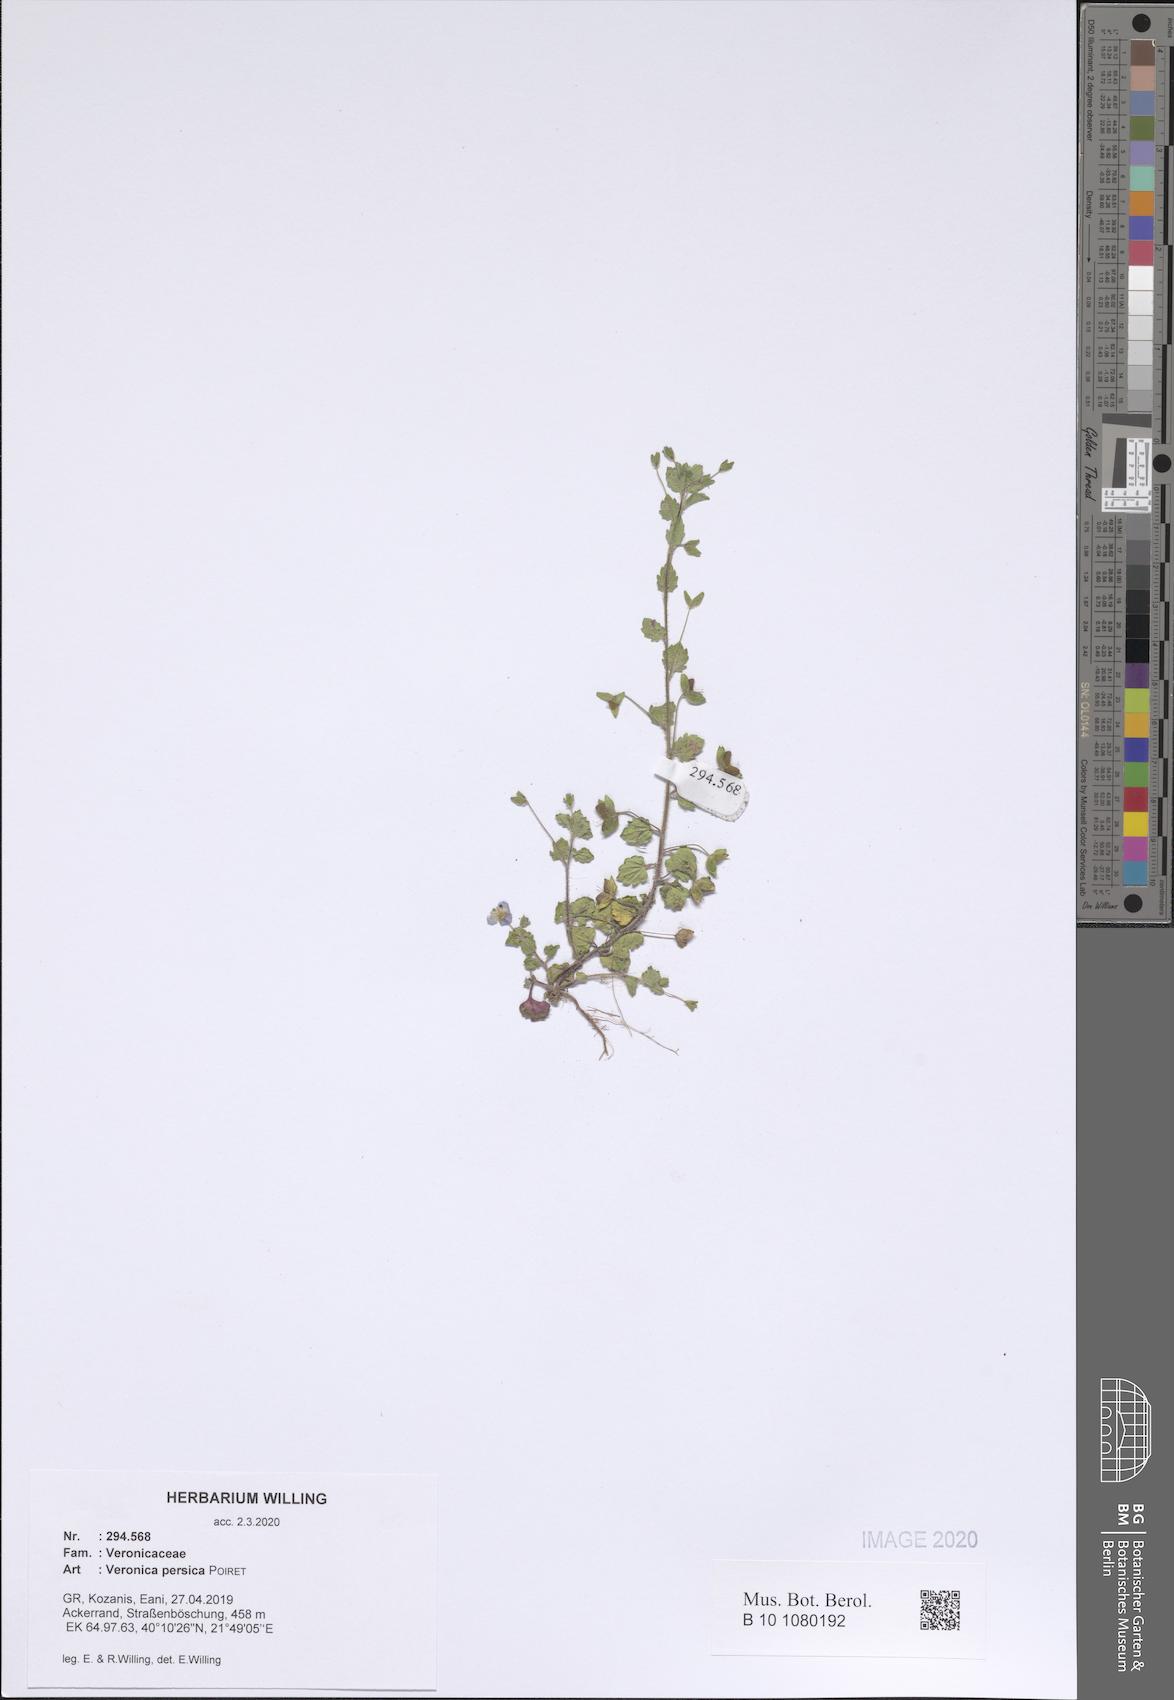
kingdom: Plantae
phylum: Tracheophyta
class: Magnoliopsida
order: Lamiales
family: Plantaginaceae
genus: Veronica
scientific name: Veronica persica
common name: Common field-speedwell
